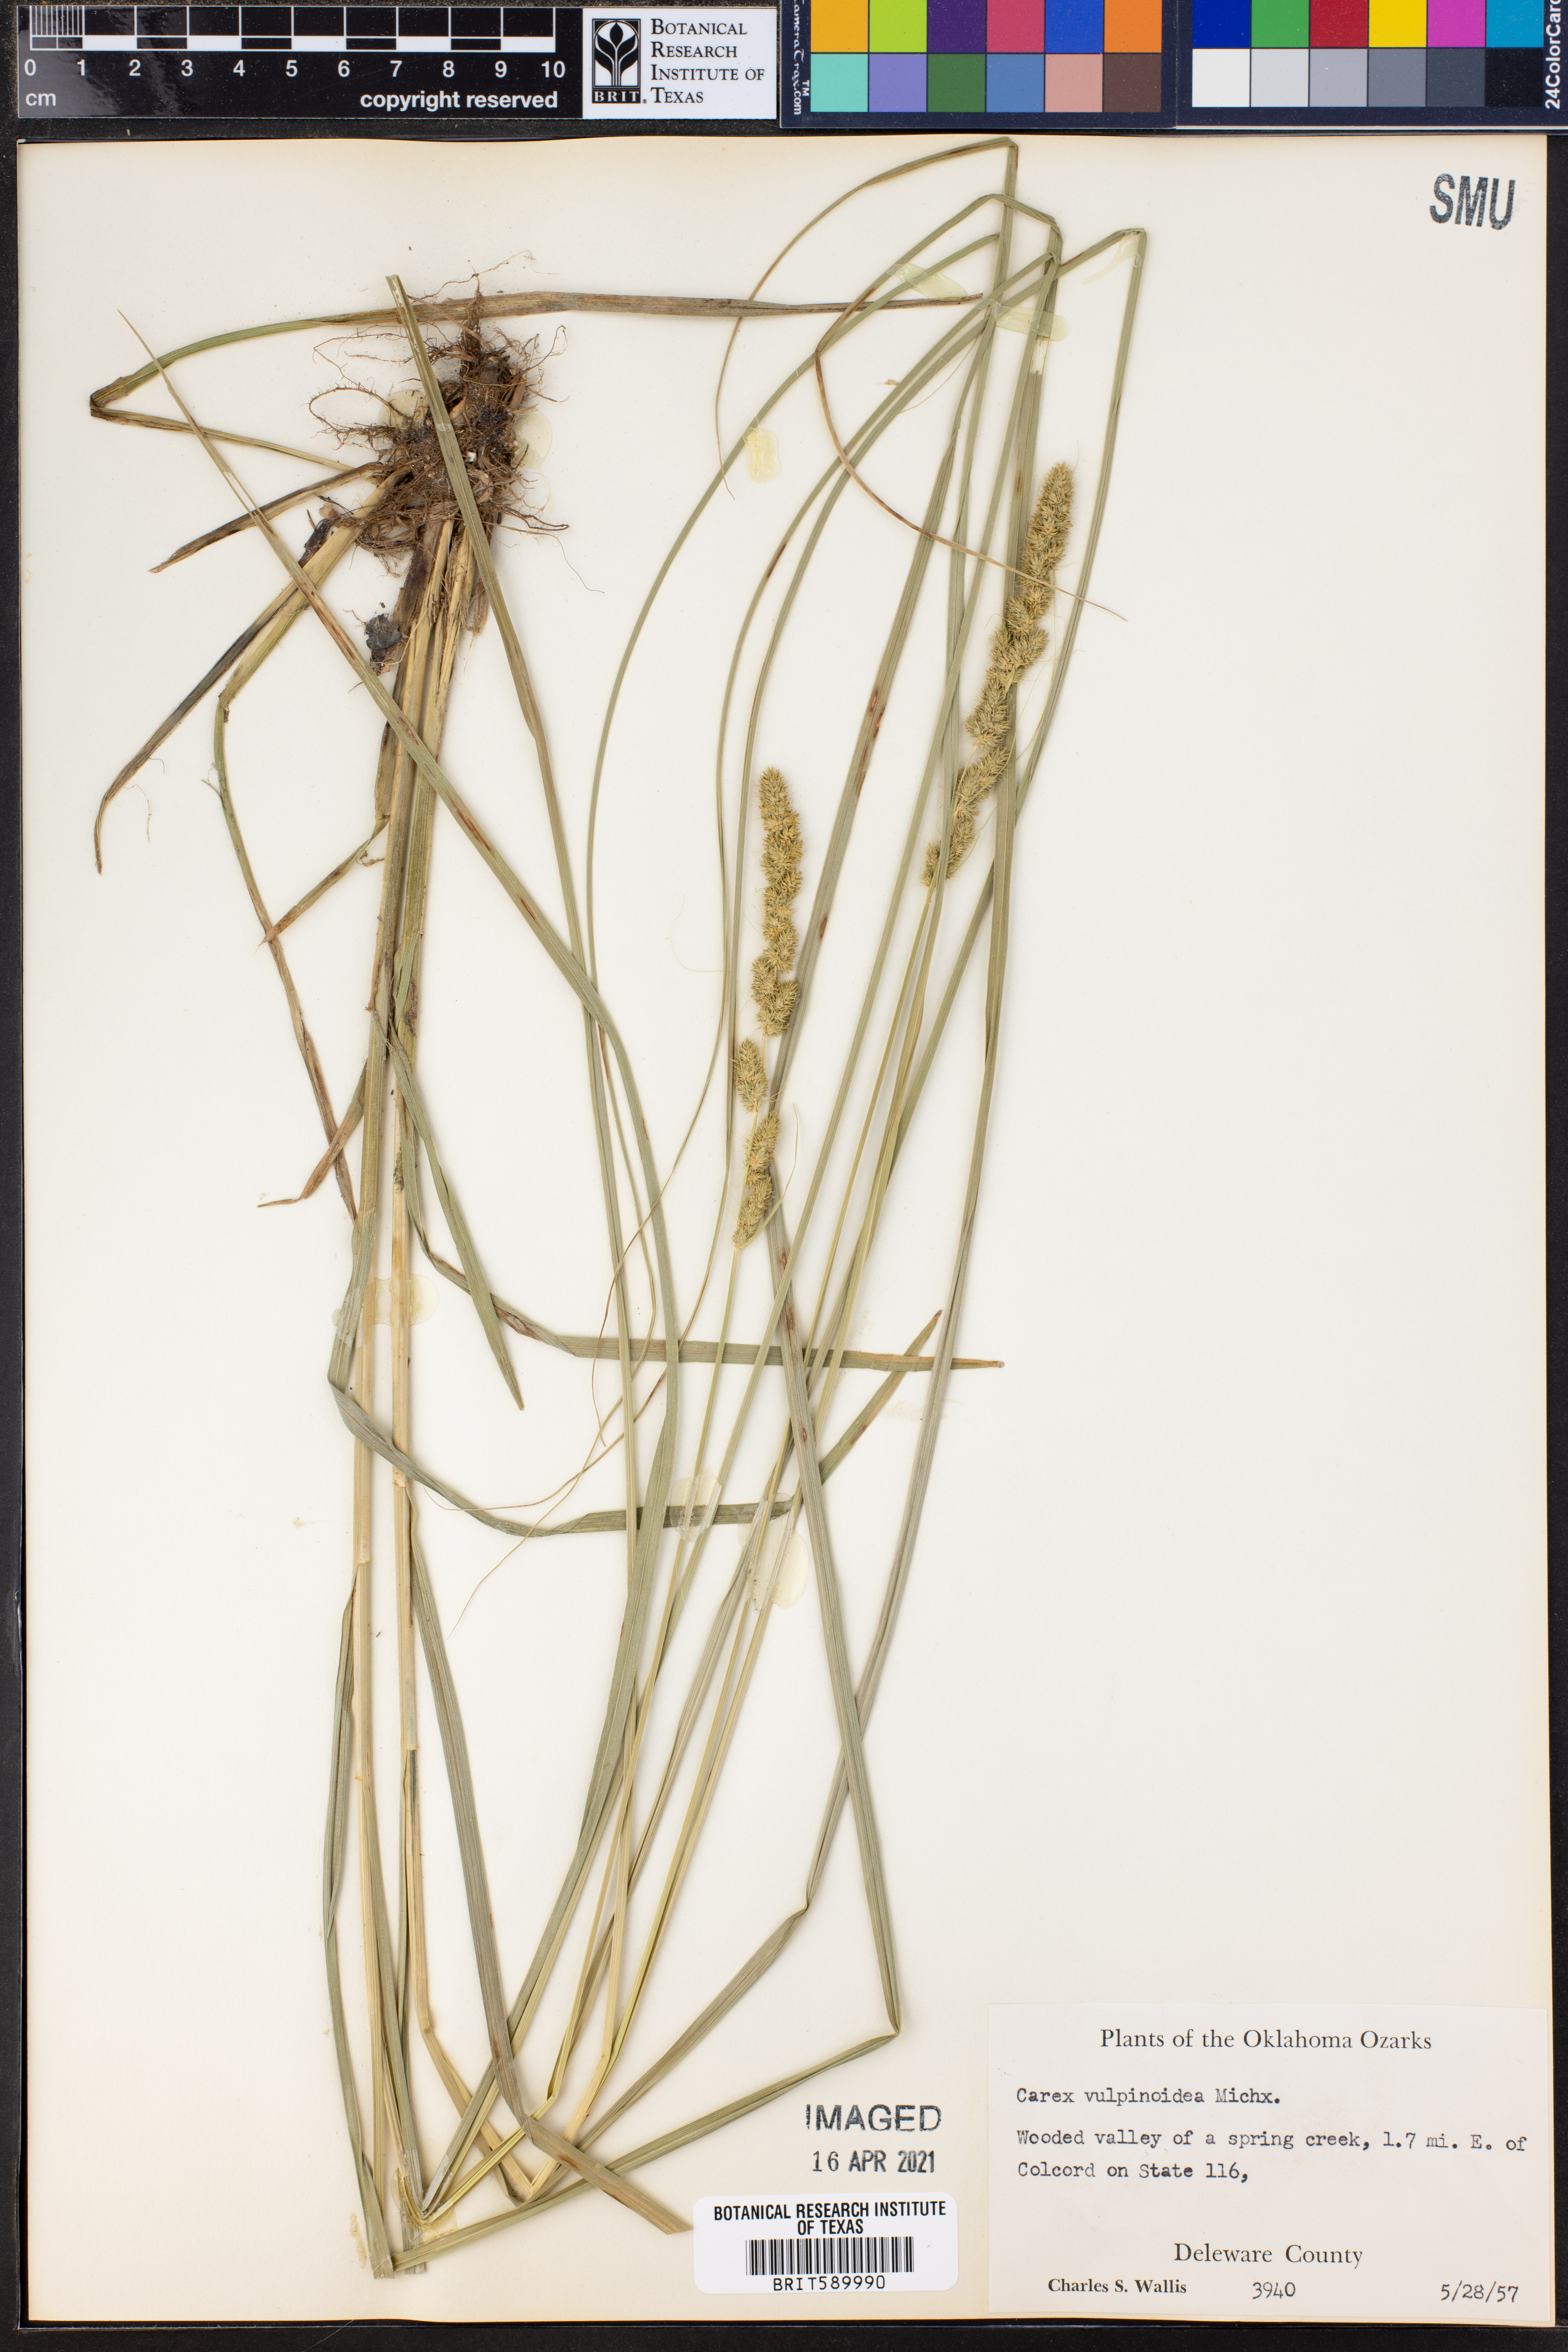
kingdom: Plantae
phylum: Tracheophyta
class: Liliopsida
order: Poales
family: Cyperaceae
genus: Carex
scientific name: Carex vulpinoidea
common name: American fox-sedge
